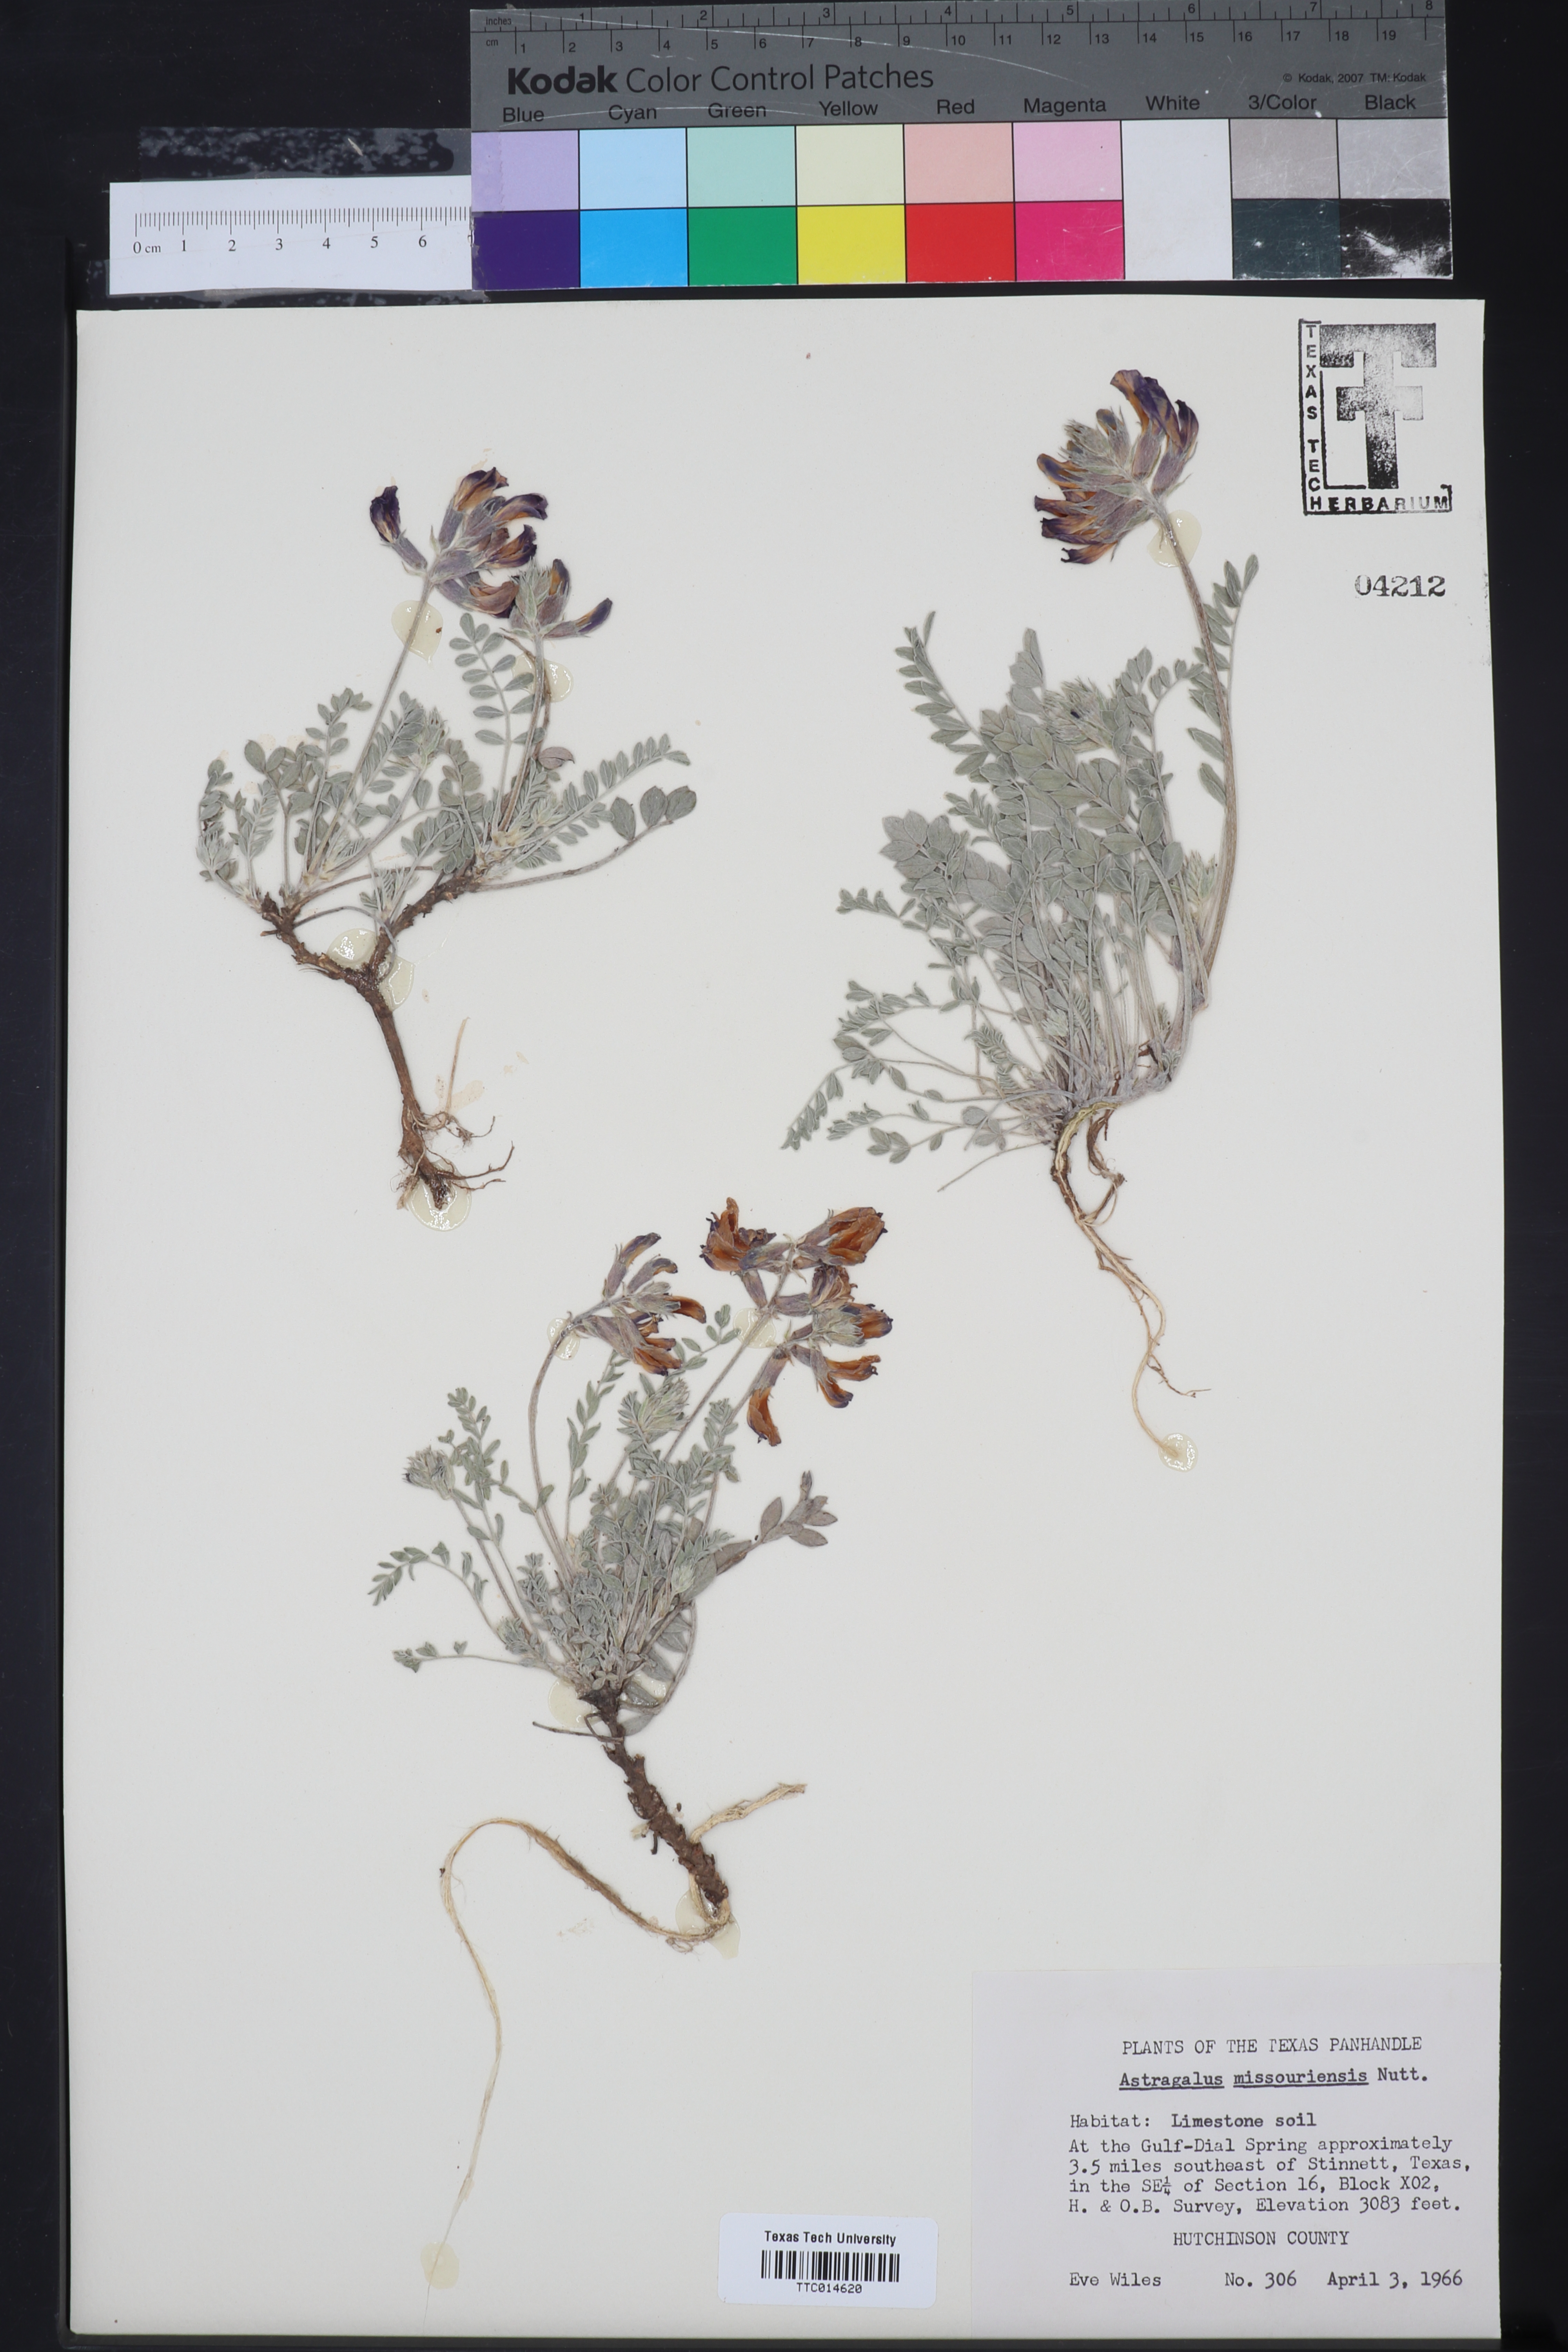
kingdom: Plantae
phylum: Tracheophyta
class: Magnoliopsida
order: Fabales
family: Fabaceae
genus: Astragalus
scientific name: Astragalus missouriensis
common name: Missouri milk-vetch
